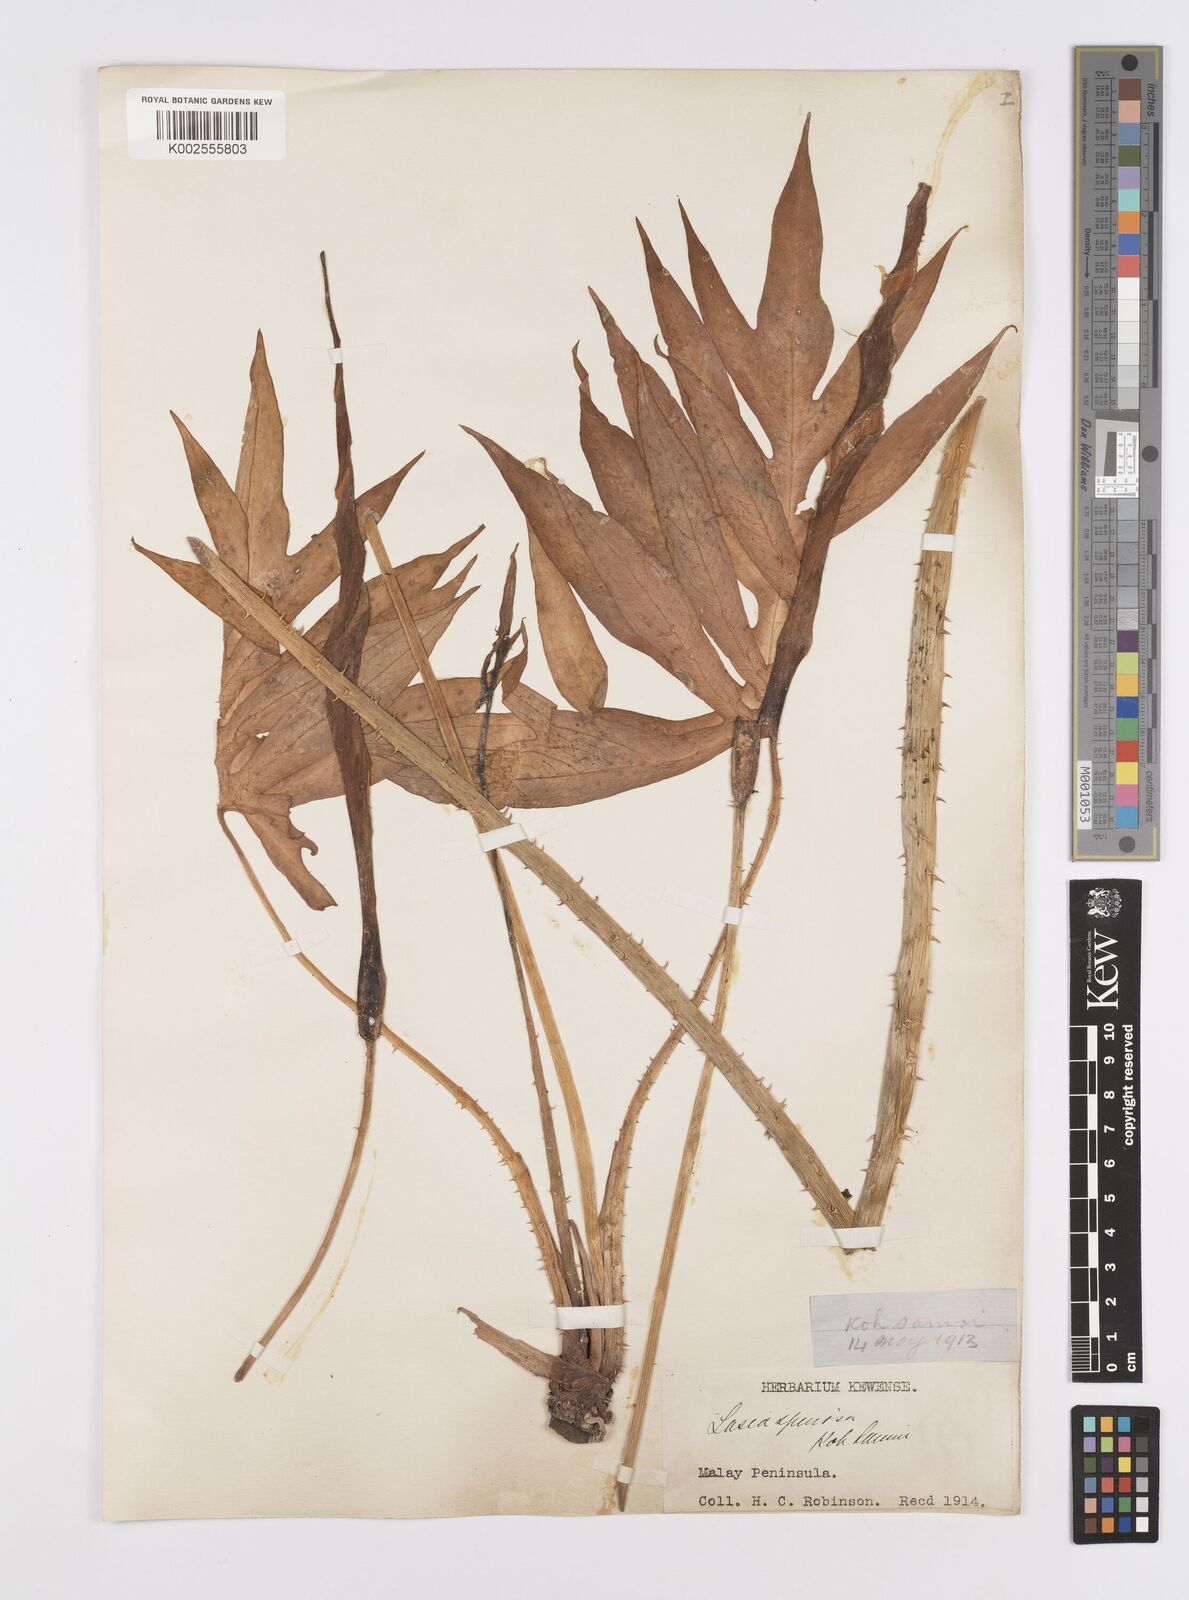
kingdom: Plantae
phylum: Tracheophyta
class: Liliopsida
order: Alismatales
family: Araceae
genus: Lasia
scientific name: Lasia spinosa
